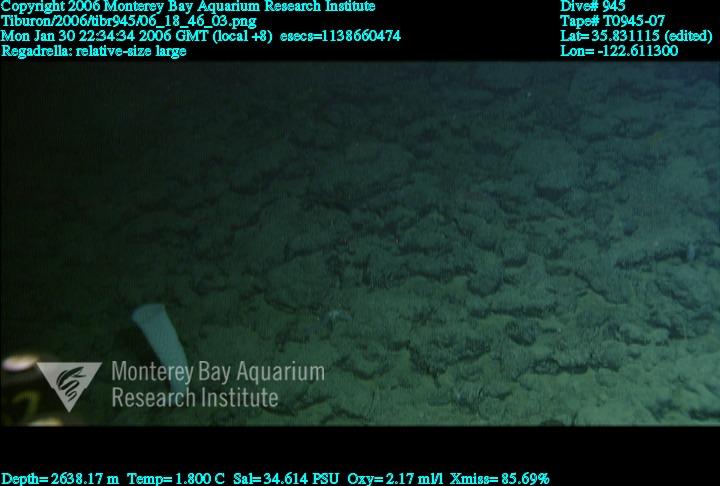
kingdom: Animalia
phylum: Porifera
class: Hexactinellida
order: Lyssacinosida
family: Euplectellidae
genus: Regadrella
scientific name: Regadrella
